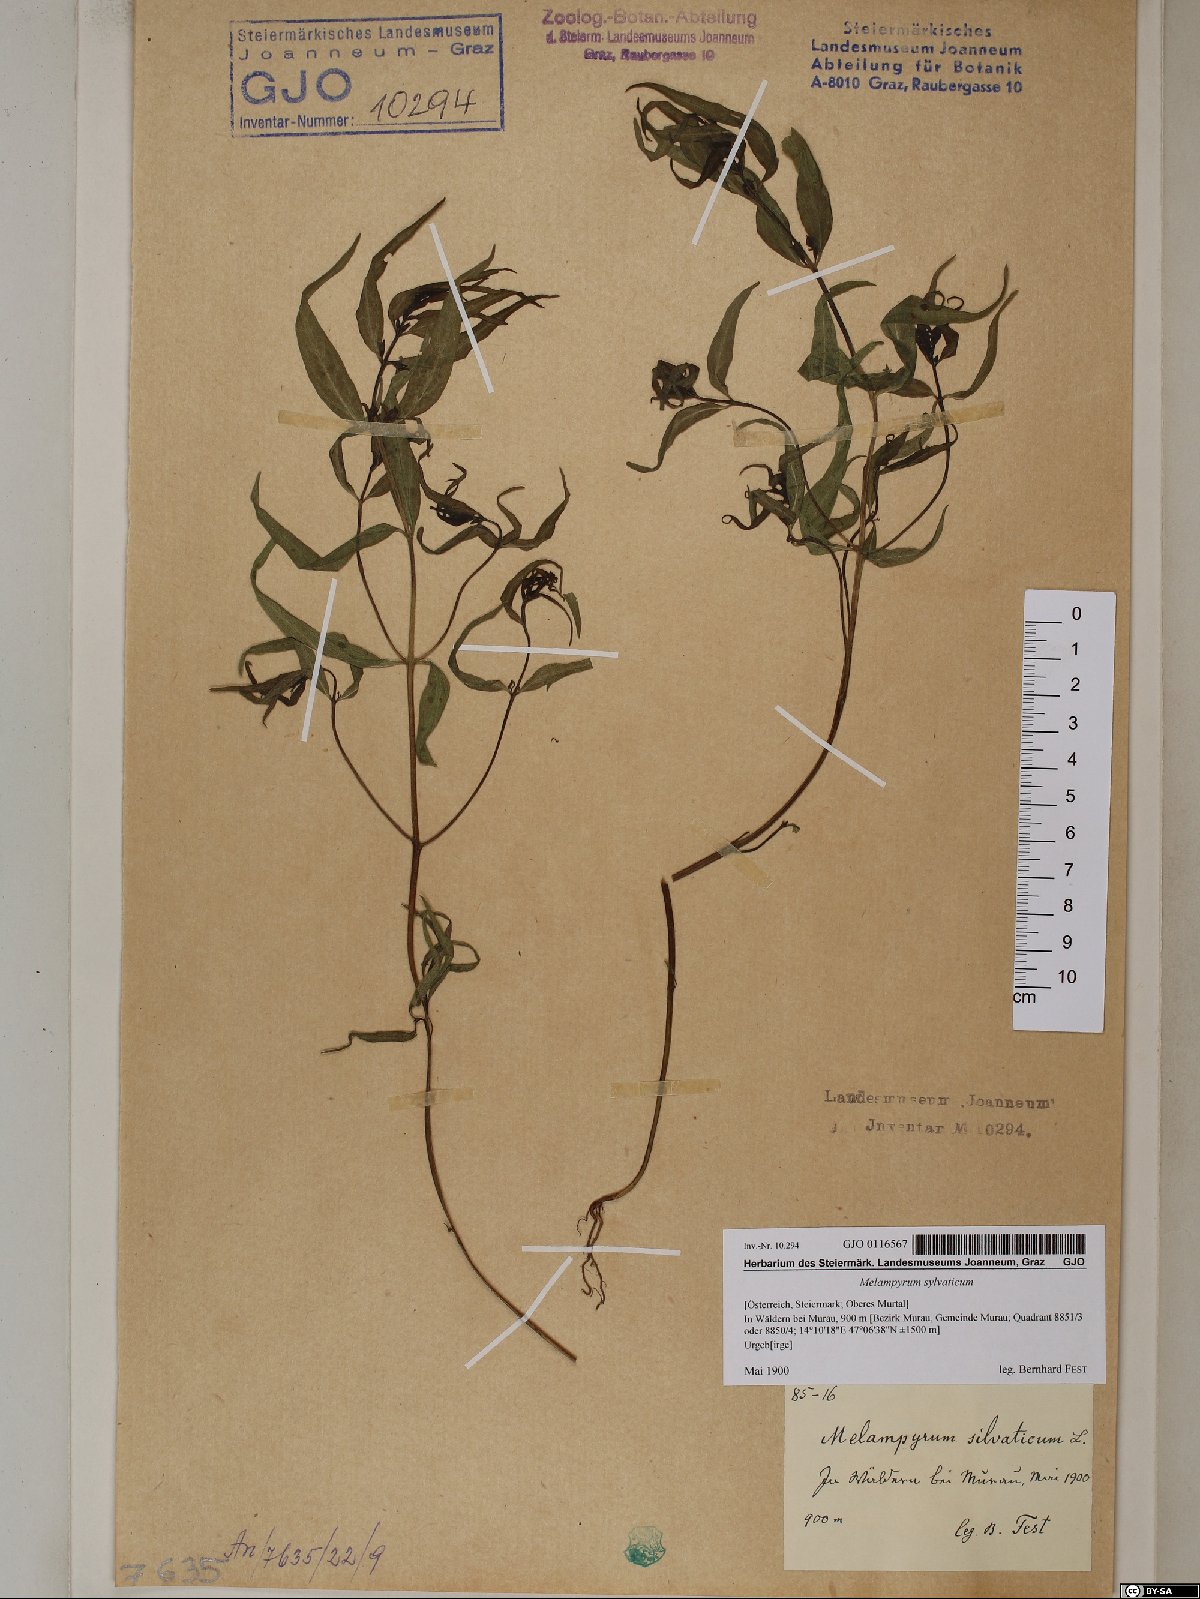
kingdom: Plantae
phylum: Tracheophyta
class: Magnoliopsida
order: Lamiales
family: Orobanchaceae
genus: Melampyrum
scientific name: Melampyrum sylvaticum
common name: Small cow-wheat
